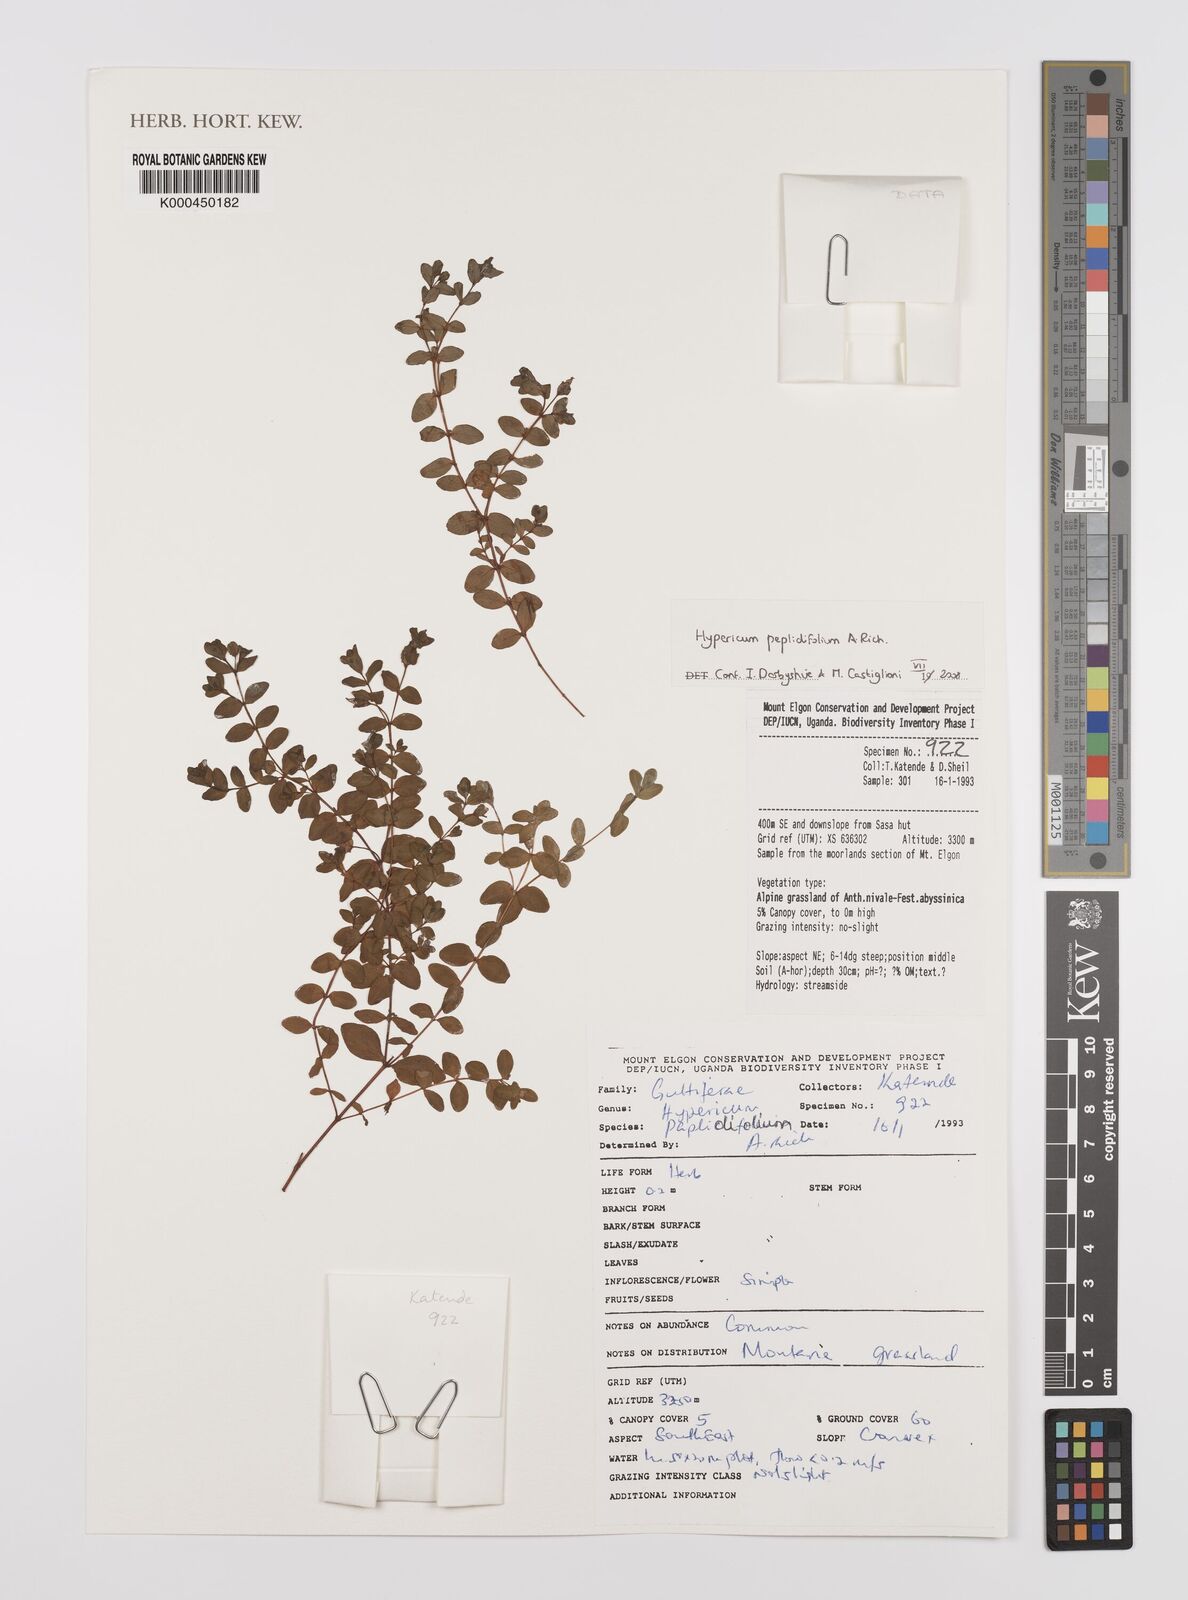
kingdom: Plantae
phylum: Tracheophyta
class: Magnoliopsida
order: Malpighiales
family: Hypericaceae
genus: Hypericum
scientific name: Hypericum peplidifolium
